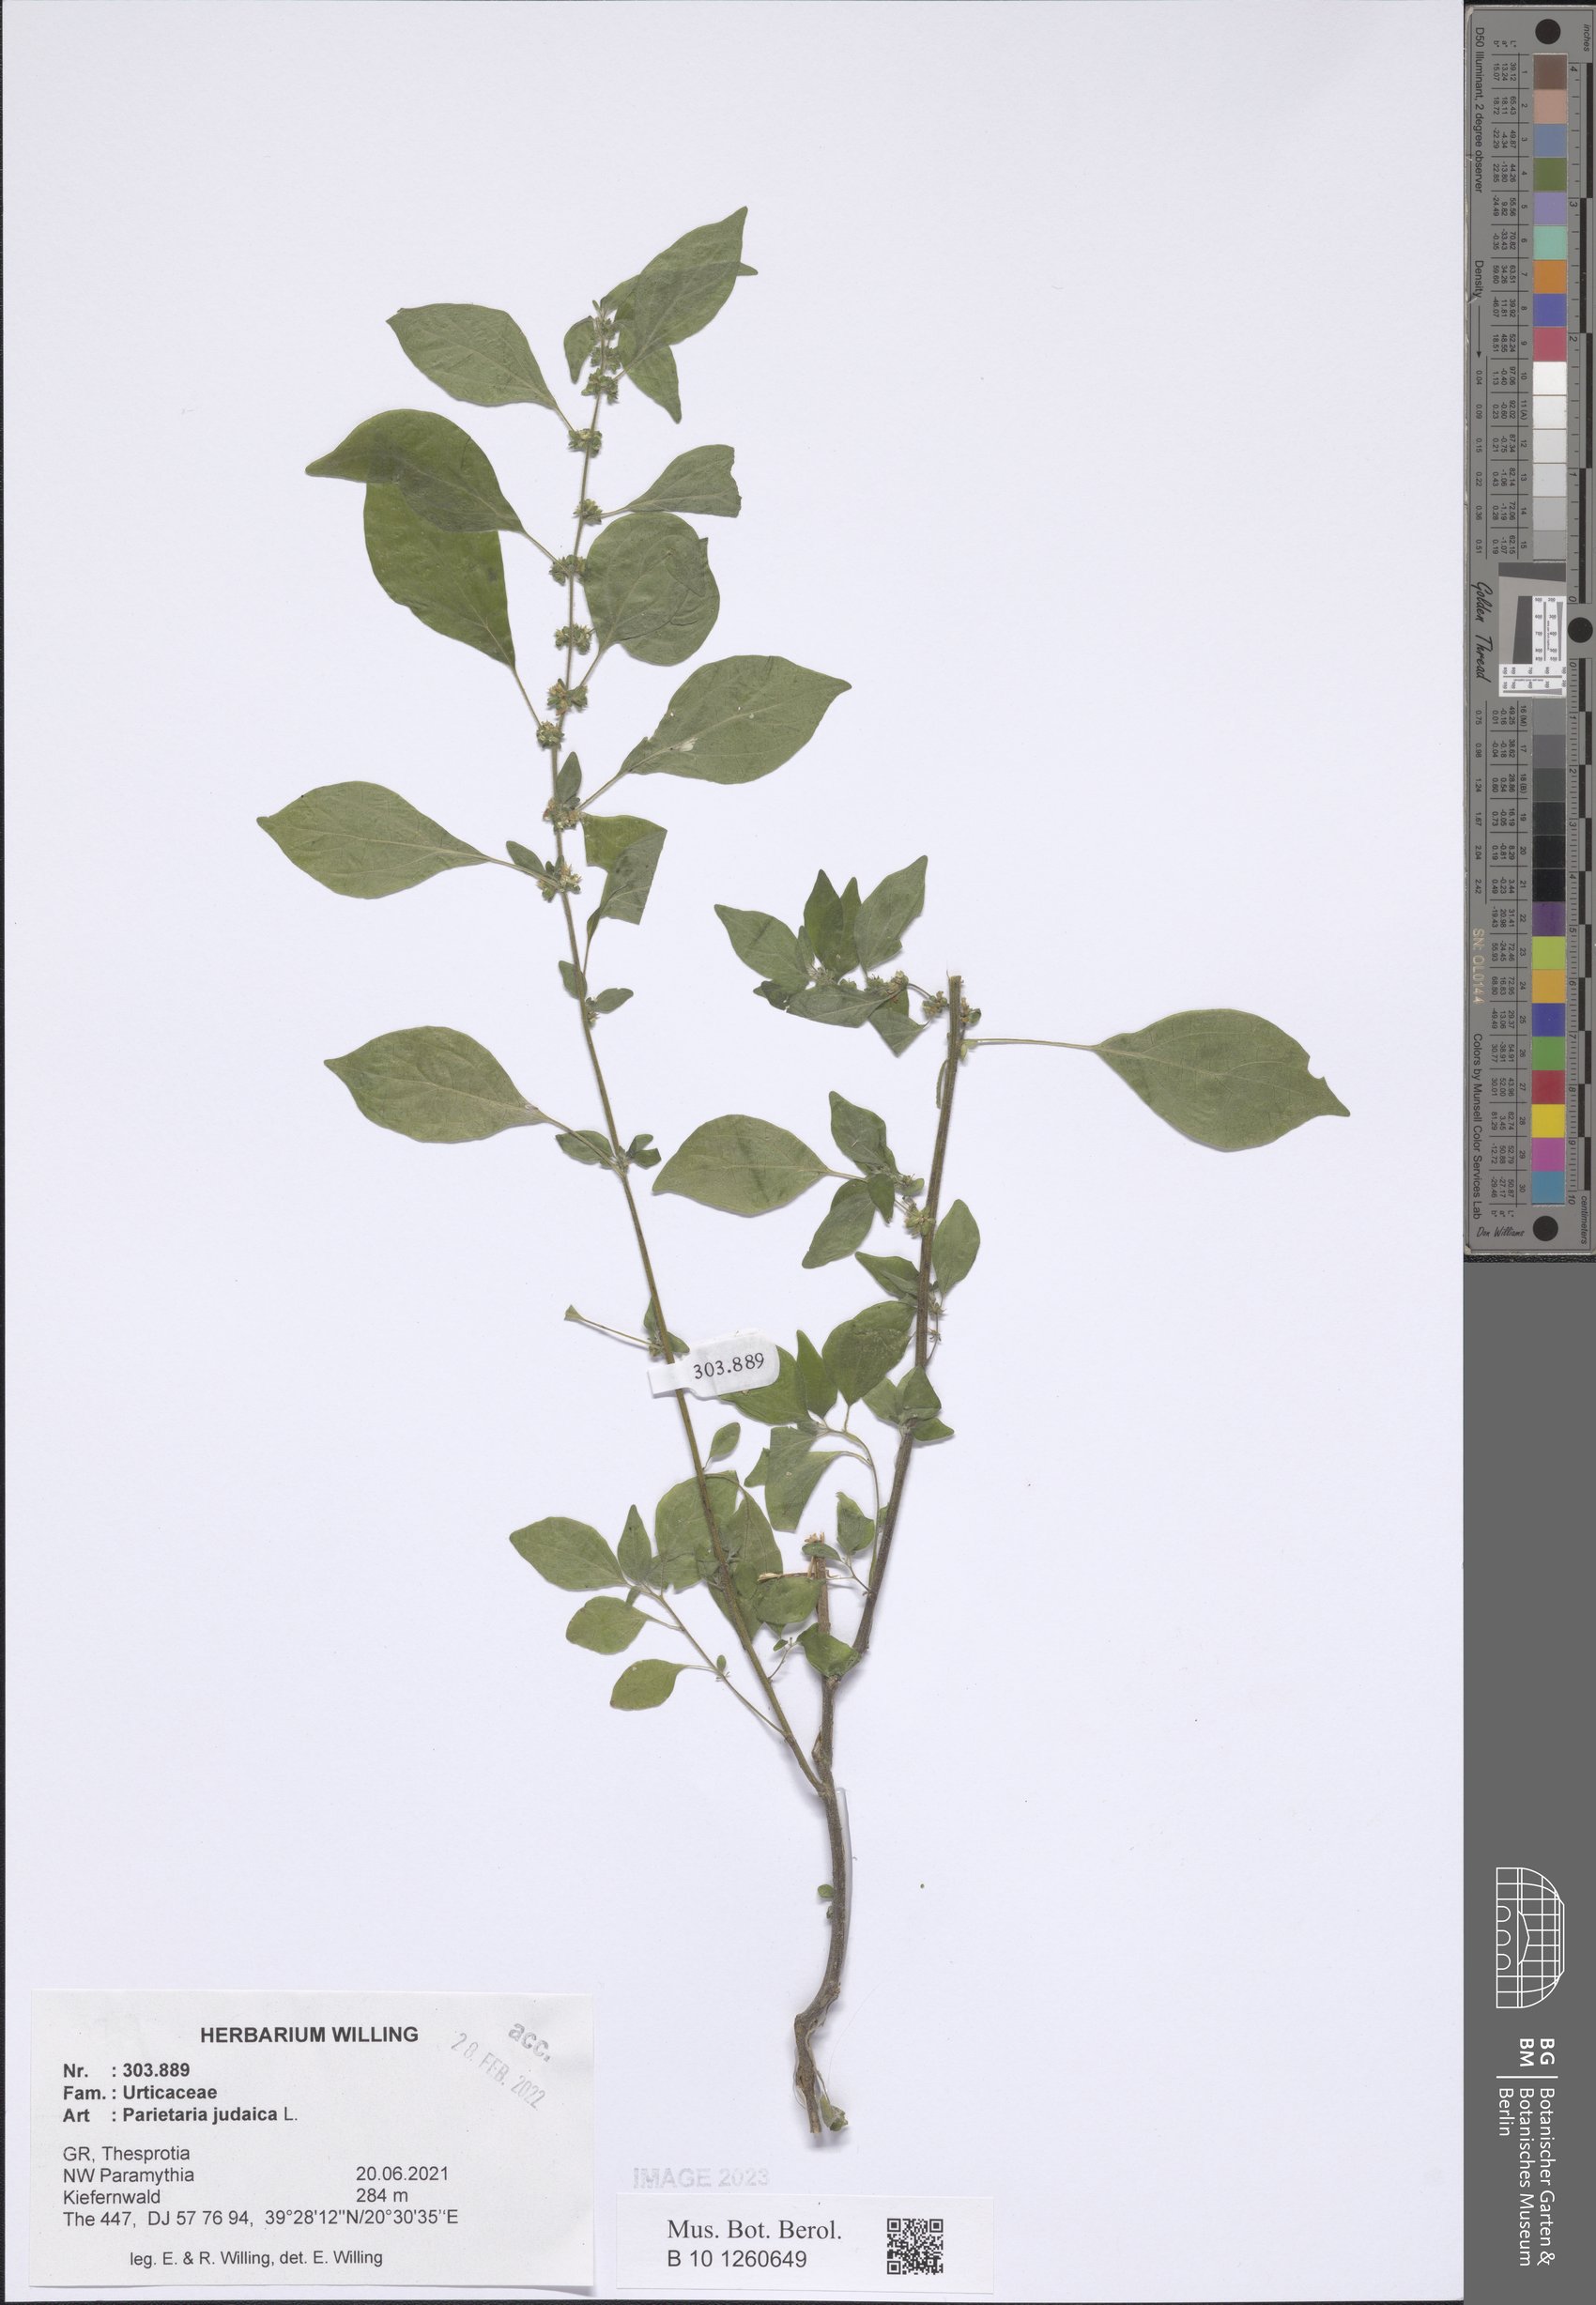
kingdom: Plantae
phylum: Tracheophyta
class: Magnoliopsida
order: Rosales
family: Urticaceae
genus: Parietaria
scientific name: Parietaria judaica
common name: Pellitory-of-the-wall
